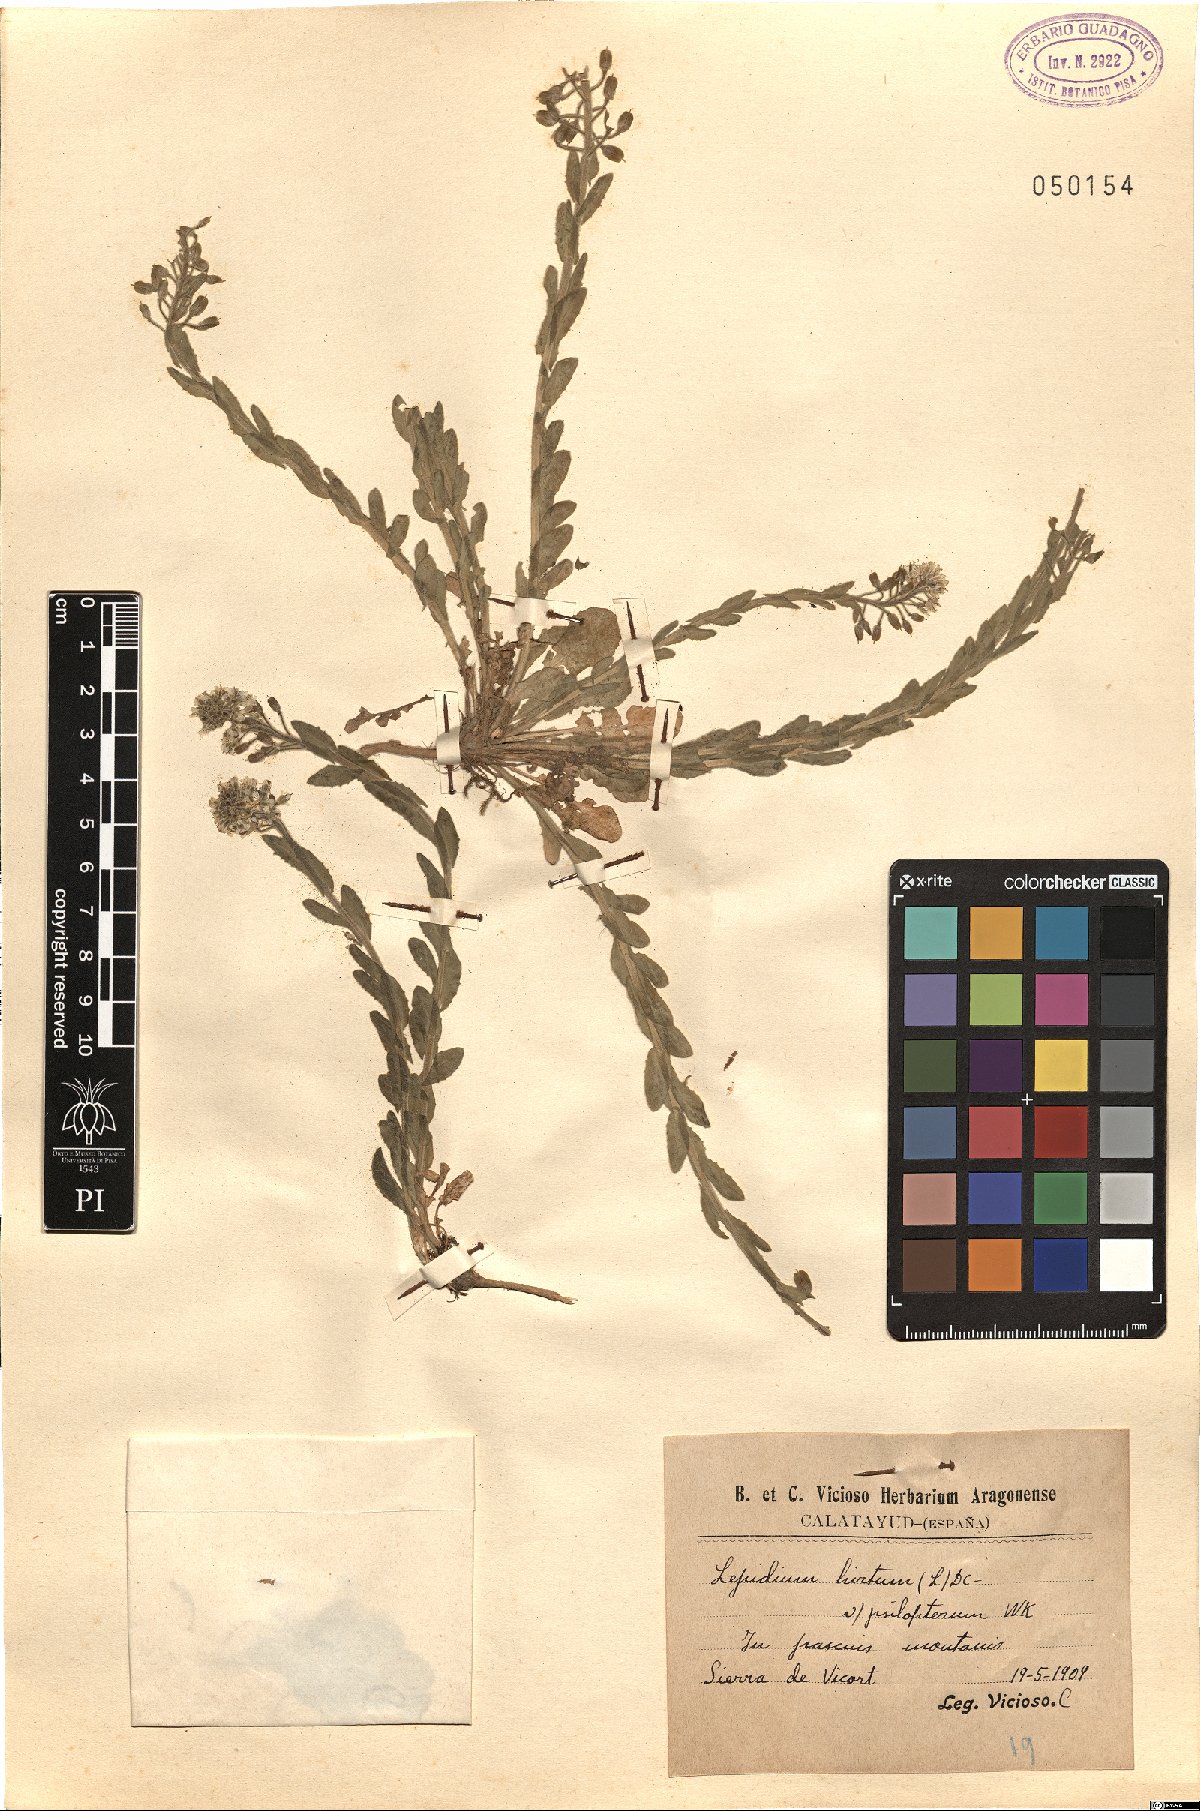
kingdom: Plantae
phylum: Tracheophyta
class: Magnoliopsida
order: Brassicales
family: Brassicaceae
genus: Lepidium
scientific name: Lepidium hirtum
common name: Mediterranean pepperweed
